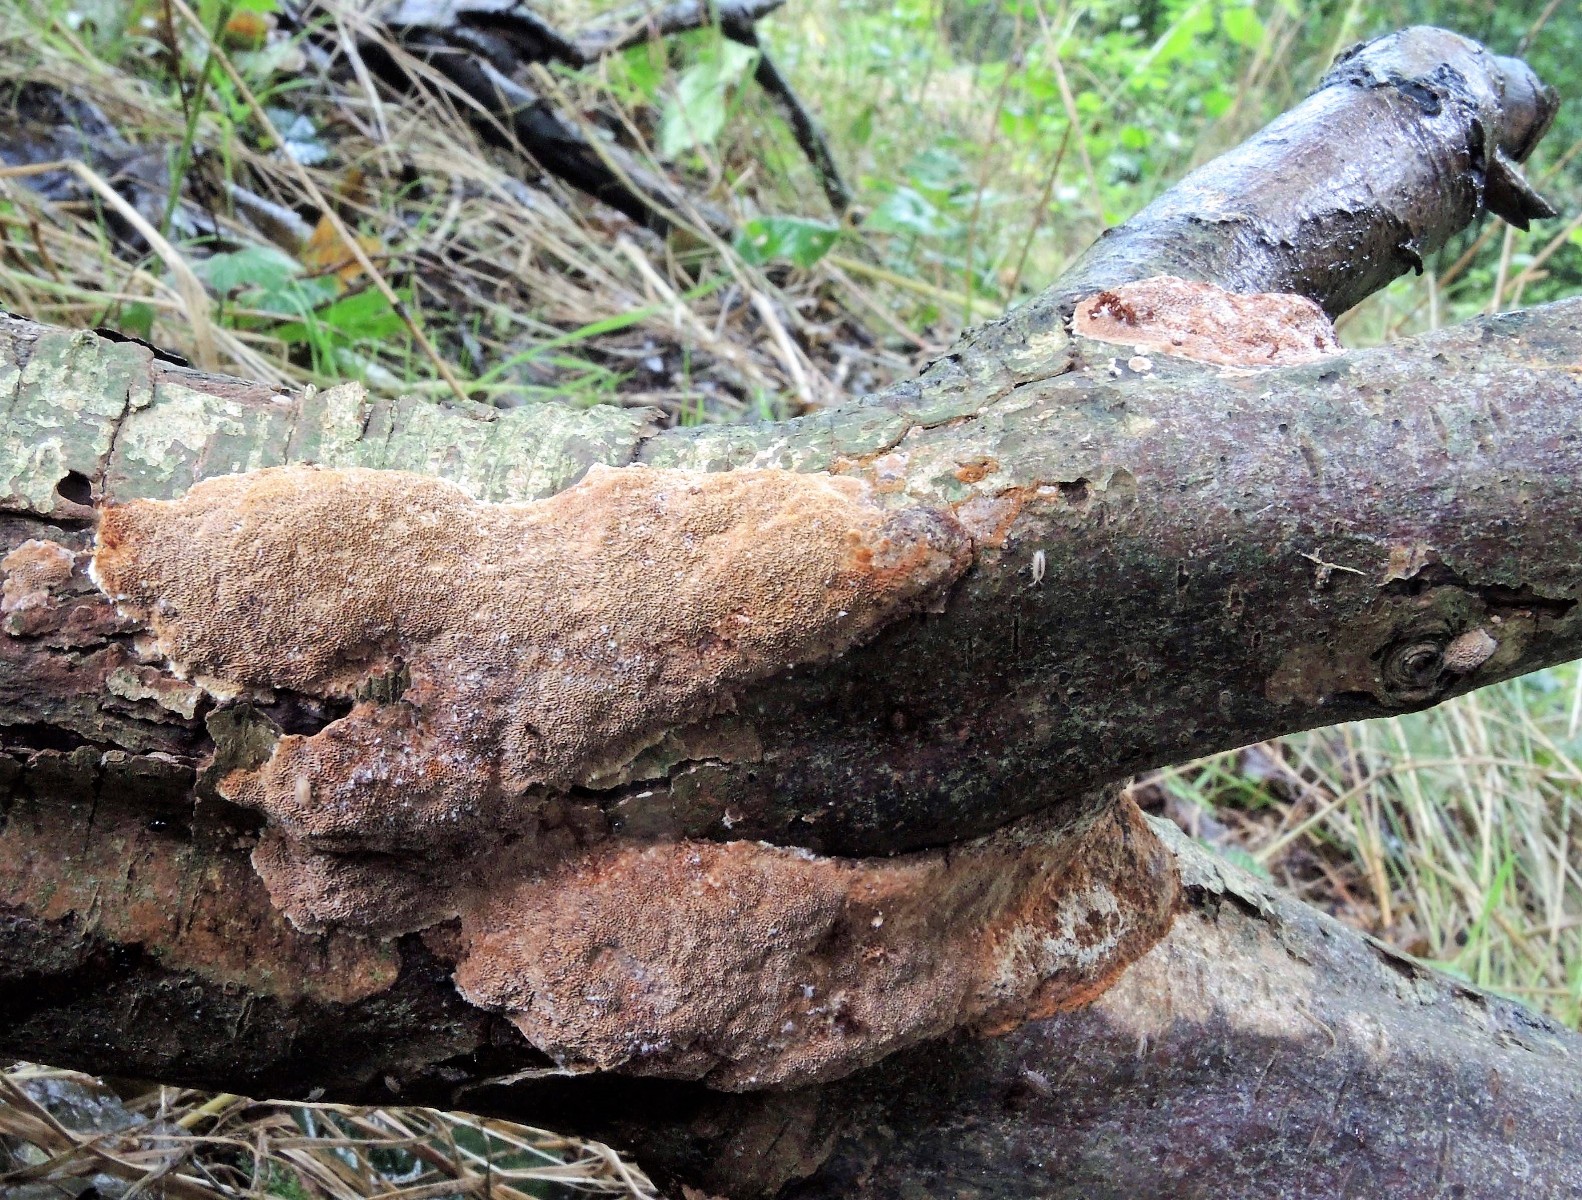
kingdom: Fungi
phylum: Basidiomycota
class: Agaricomycetes
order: Hymenochaetales
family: Hymenochaetaceae
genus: Fuscoporia
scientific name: Fuscoporia ferrea
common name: skorpe-ildporesvamp
